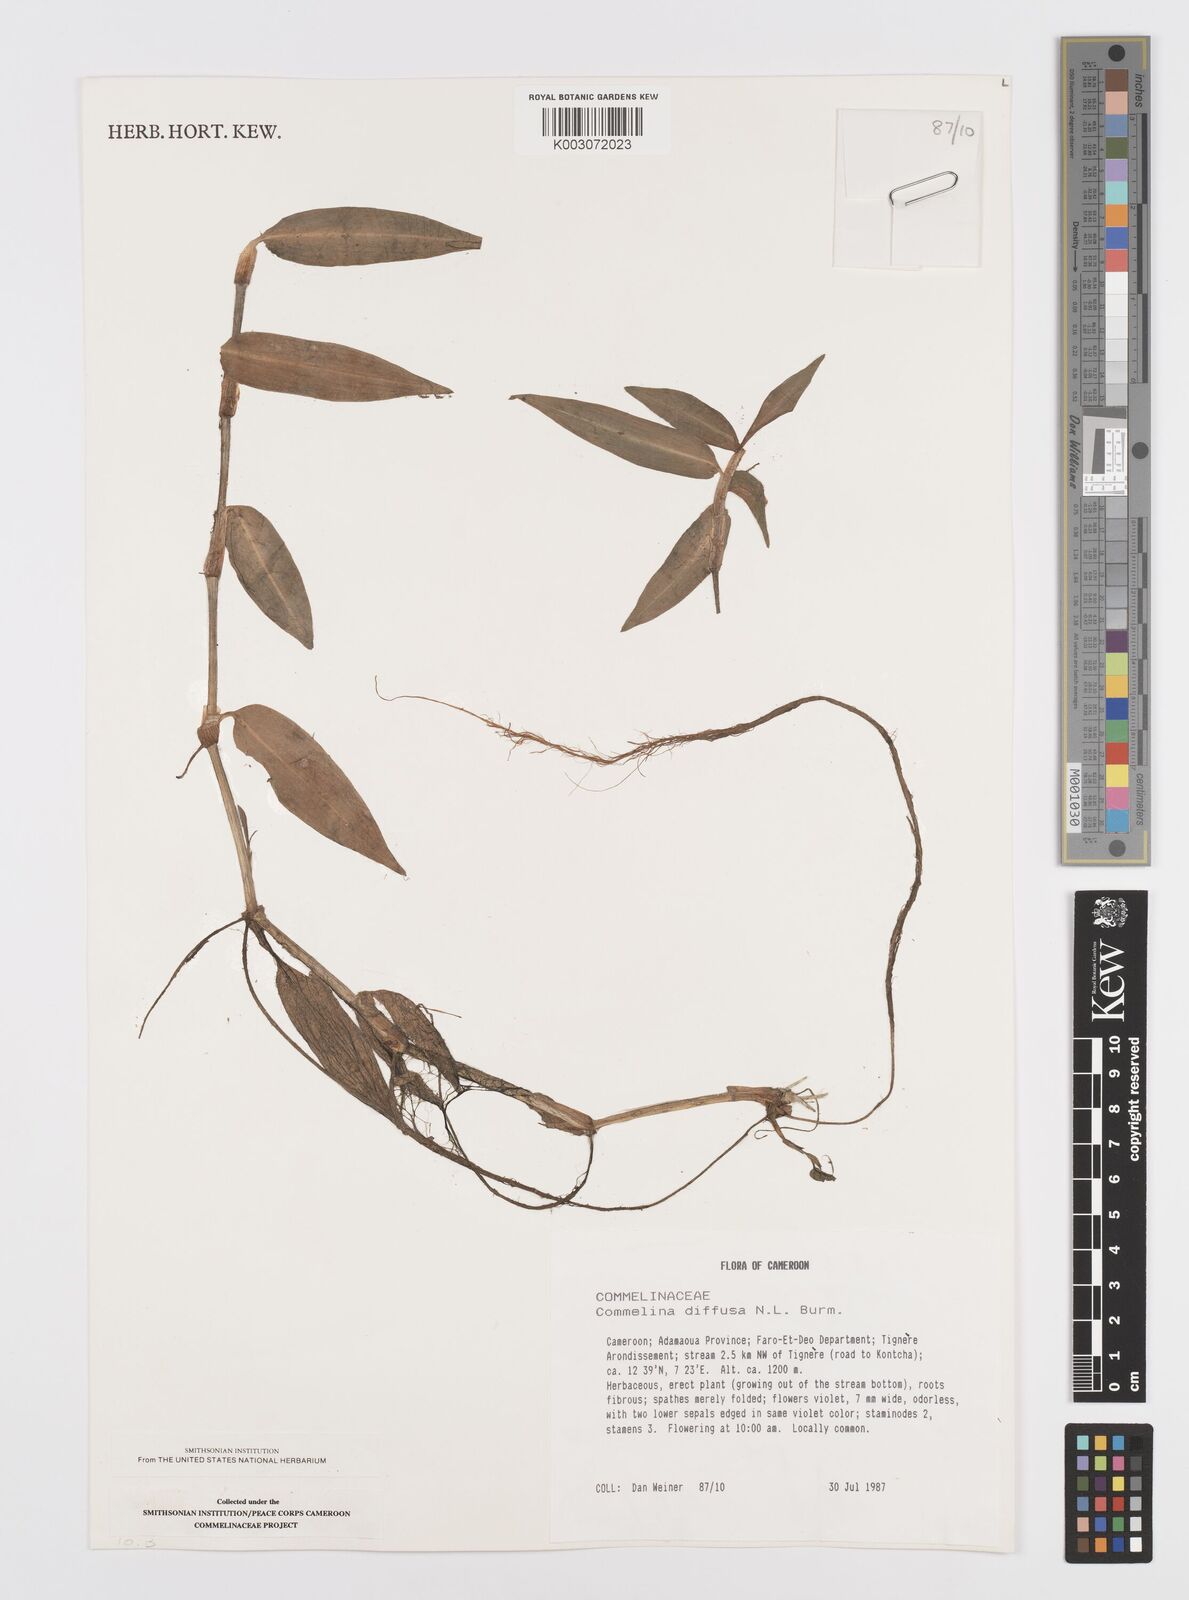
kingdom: Plantae
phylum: Tracheophyta
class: Liliopsida
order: Commelinales
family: Commelinaceae
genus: Commelina
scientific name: Commelina diffusa
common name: Climbing dayflower
